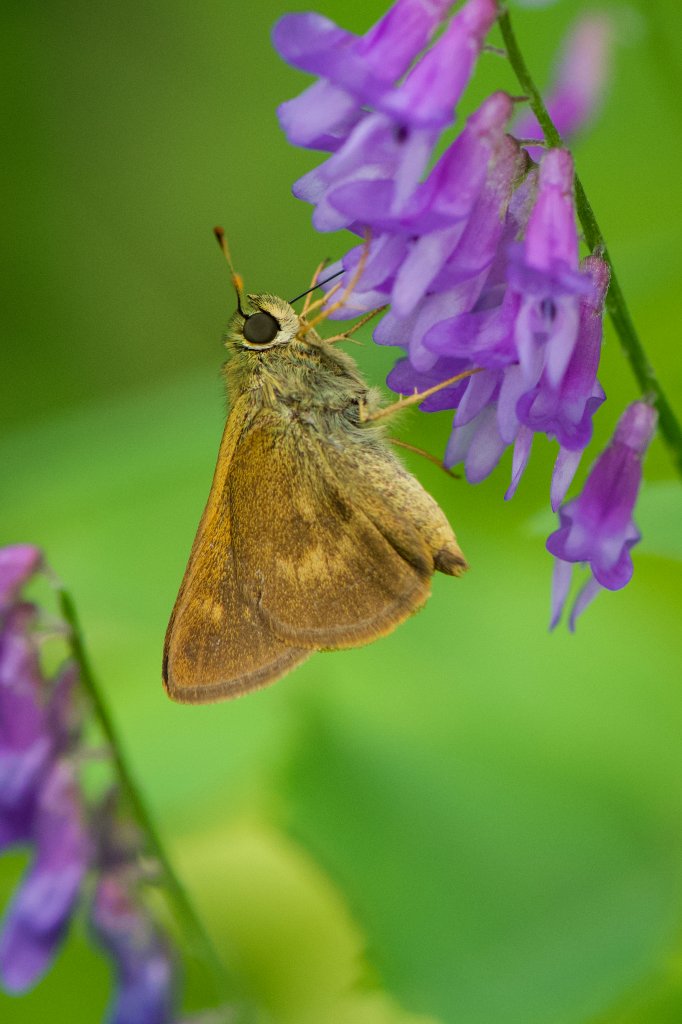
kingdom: Animalia
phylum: Arthropoda
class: Insecta
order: Lepidoptera
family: Hesperiidae
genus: Polites
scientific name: Polites egeremet
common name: Northern Broken-Dash
